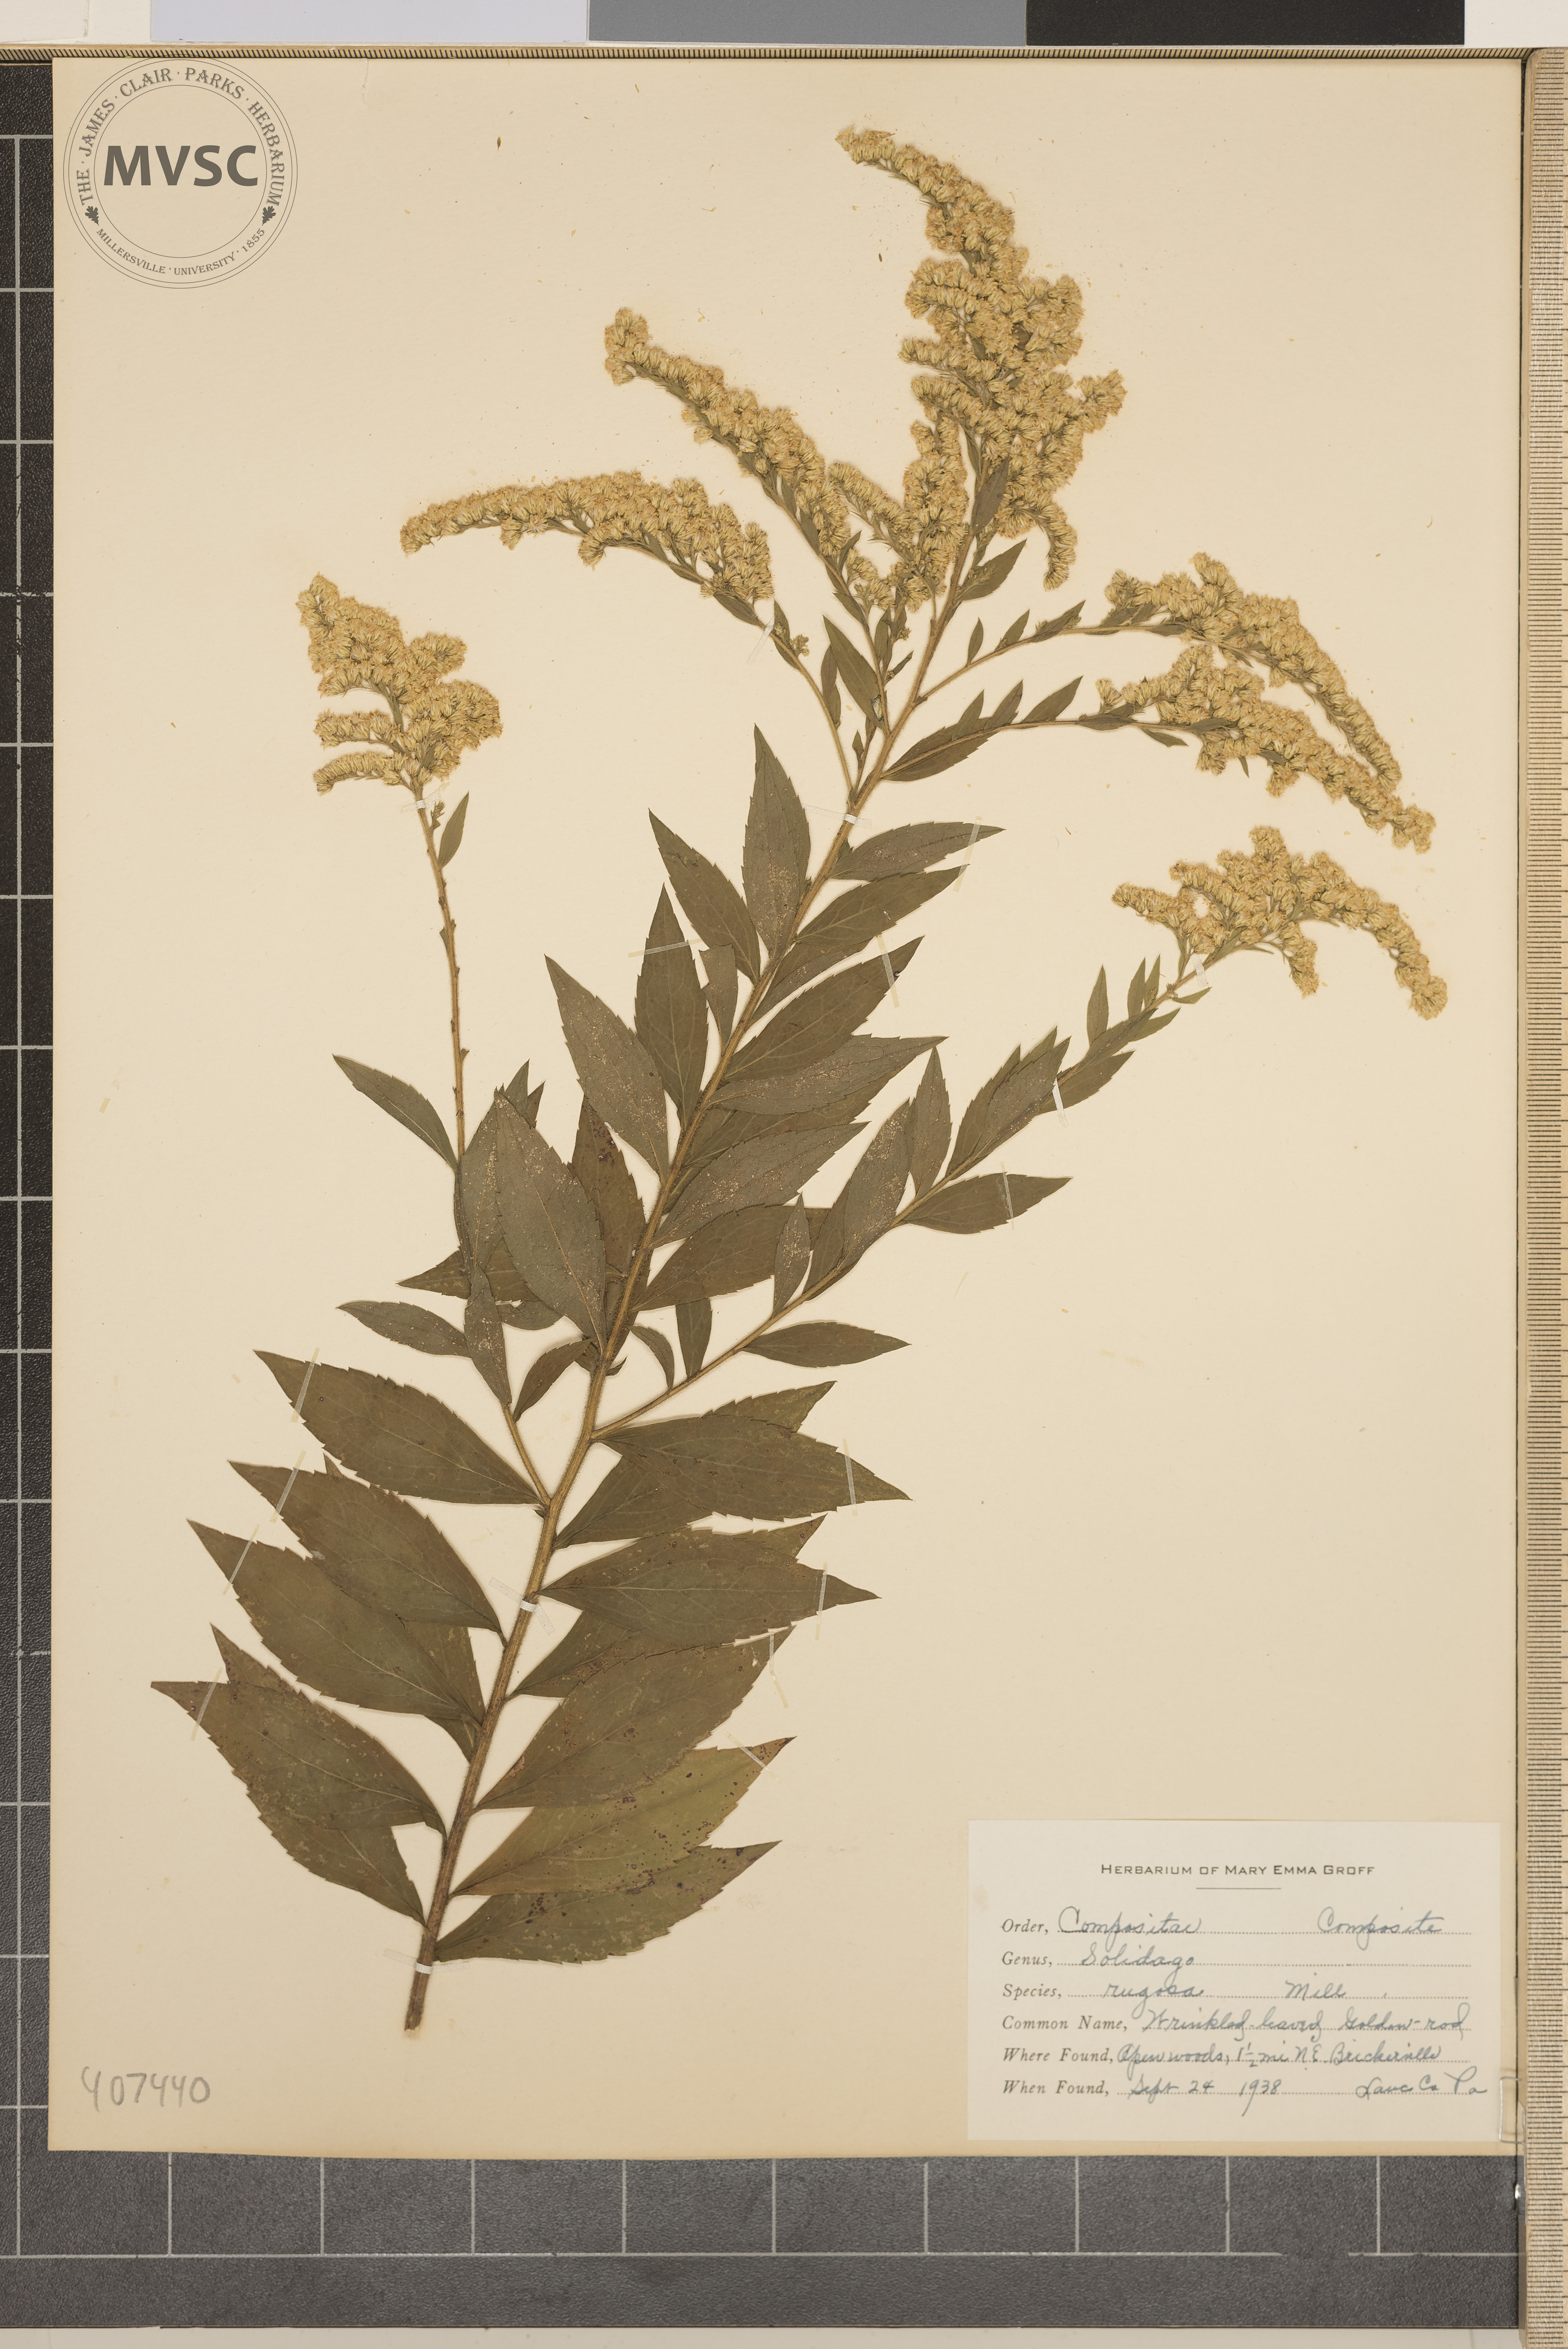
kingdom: Plantae
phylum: Tracheophyta
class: Magnoliopsida
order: Asterales
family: Asteraceae
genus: Solidago
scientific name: Solidago rugosa
